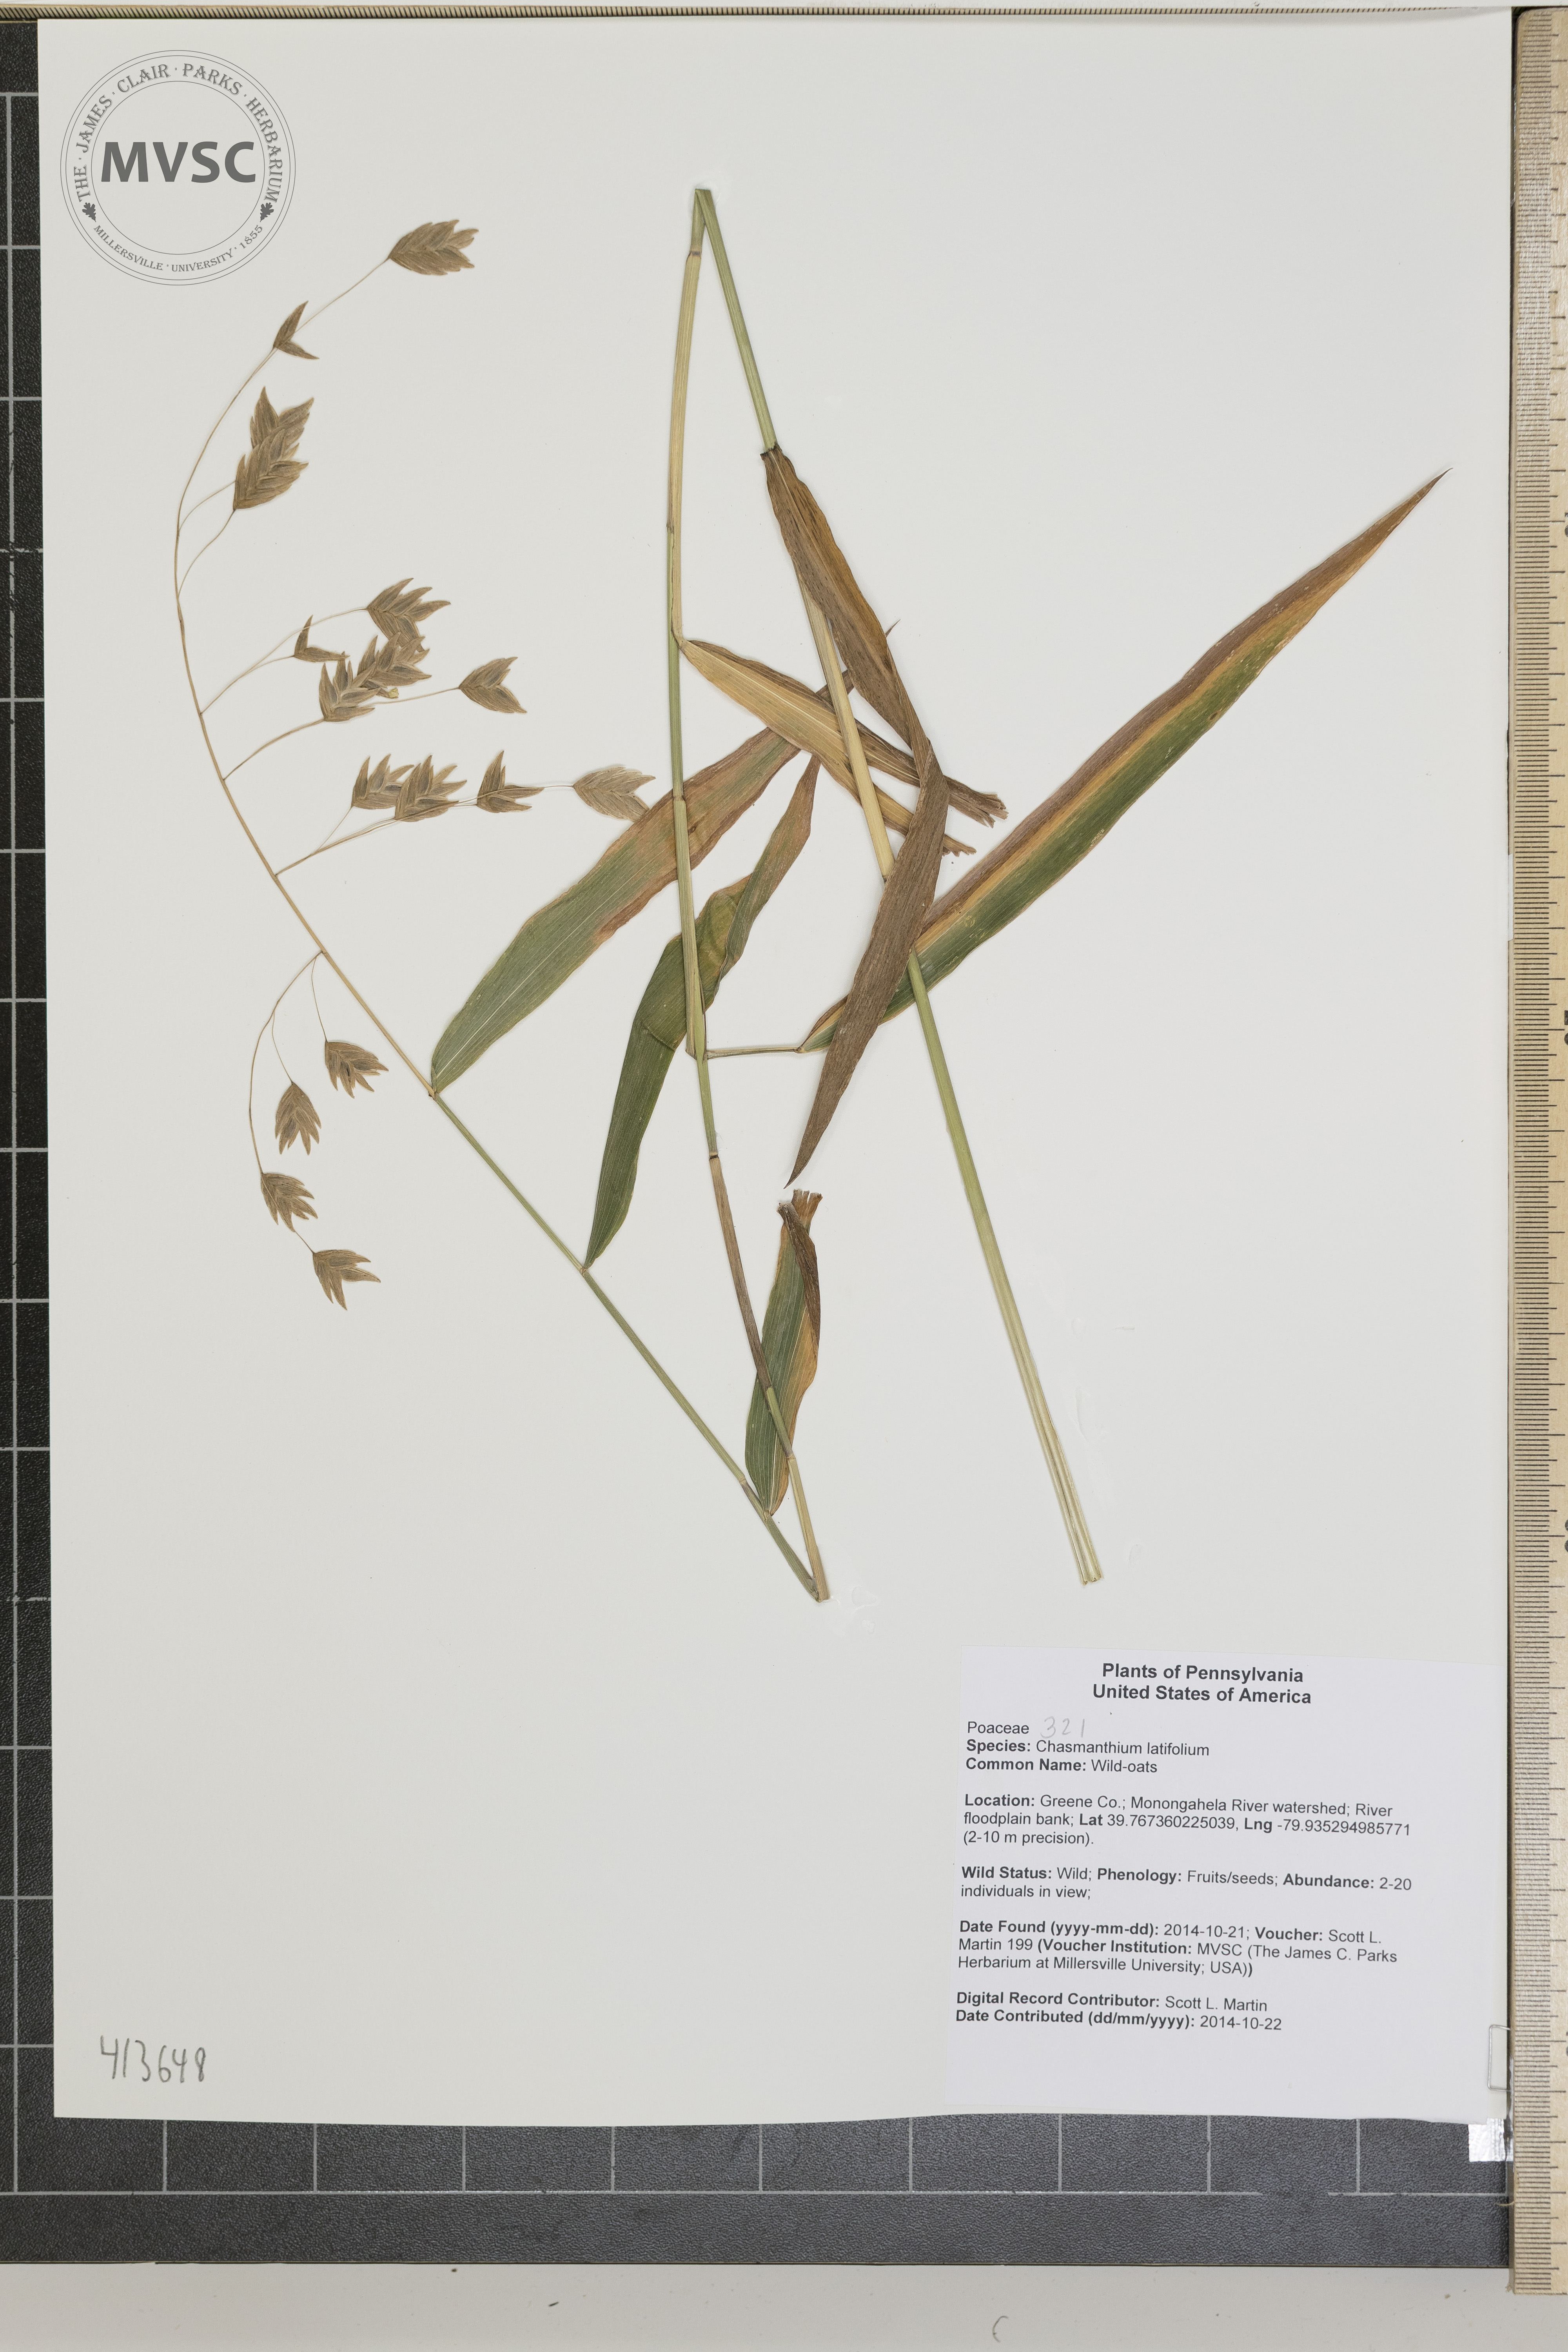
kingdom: Plantae
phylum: Tracheophyta
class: Liliopsida
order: Poales
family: Poaceae
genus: Chasmanthium
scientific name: Chasmanthium latifolium
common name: Wild-oats
